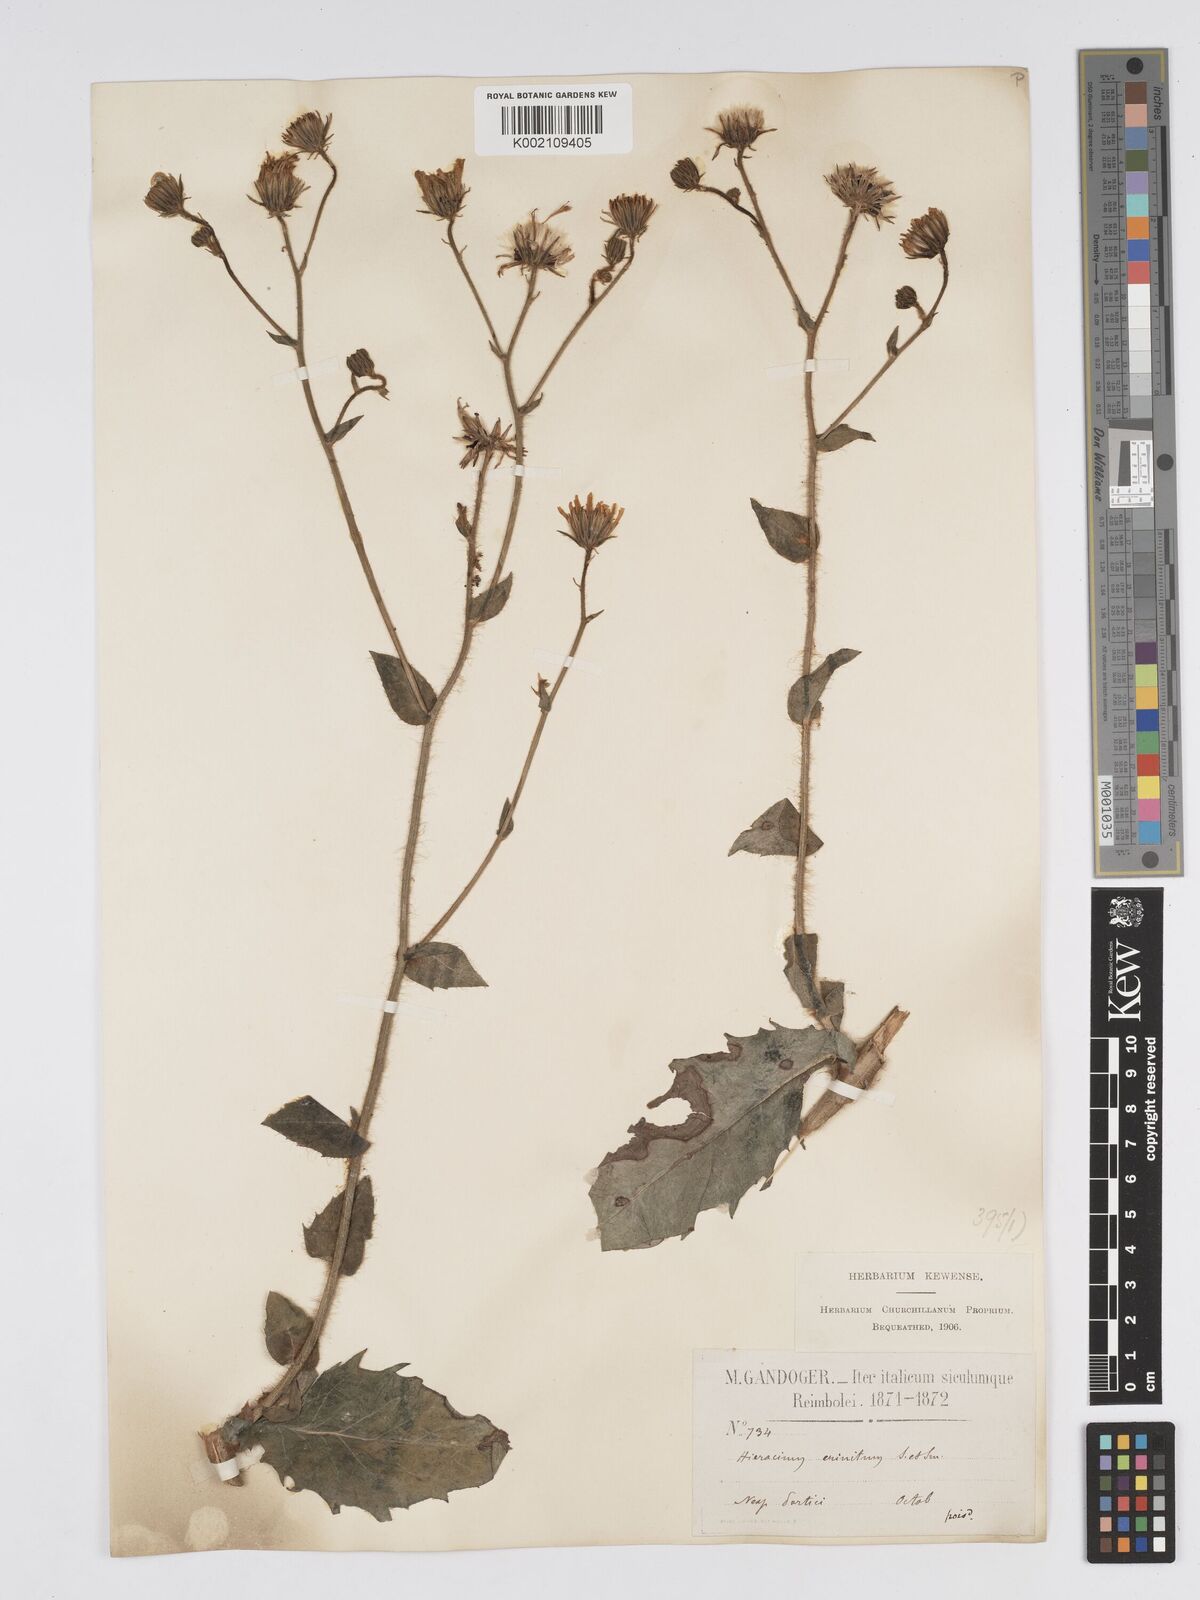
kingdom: Plantae
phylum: Tracheophyta
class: Magnoliopsida
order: Asterales
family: Asteraceae
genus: Hieracium
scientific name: Hieracium racemosum
